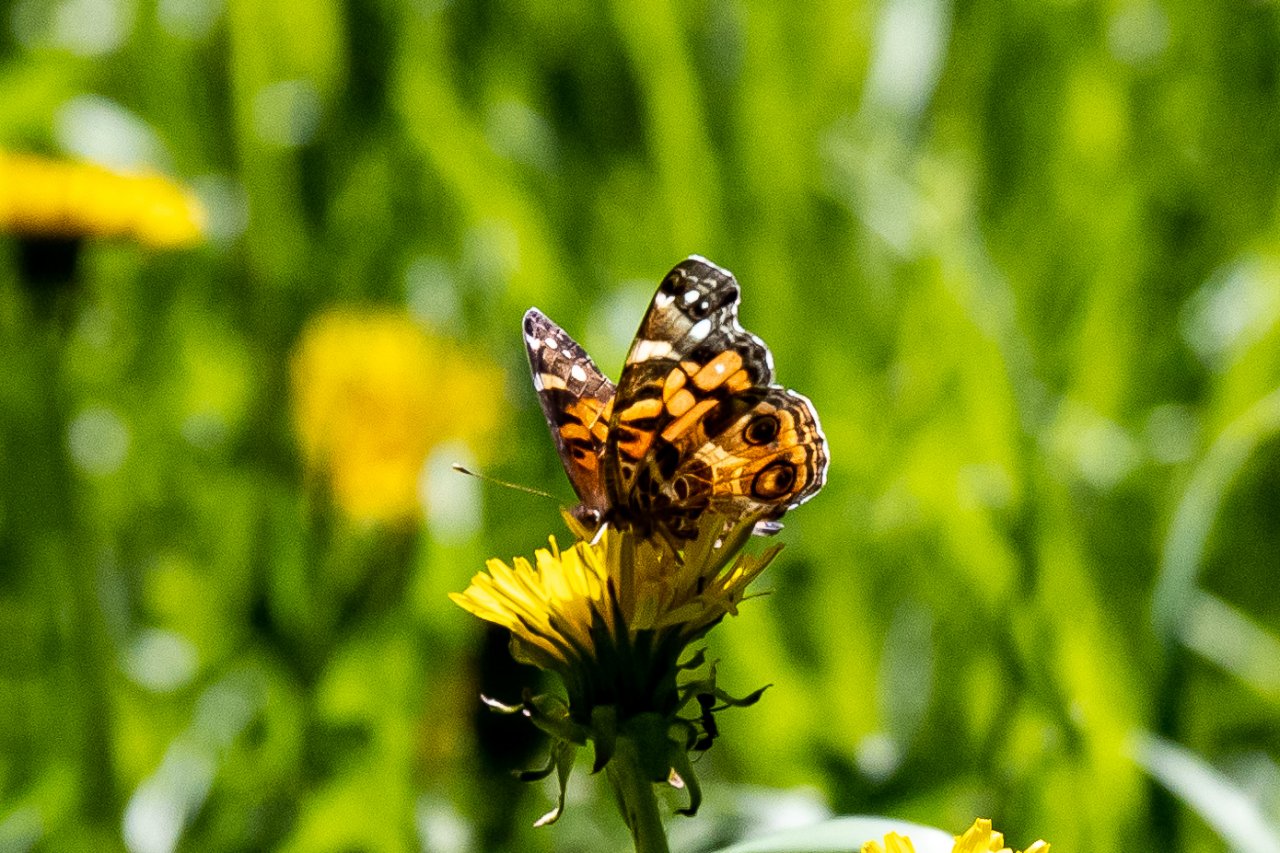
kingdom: Animalia
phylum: Arthropoda
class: Insecta
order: Lepidoptera
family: Nymphalidae
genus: Vanessa
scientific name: Vanessa virginiensis
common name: American Lady
